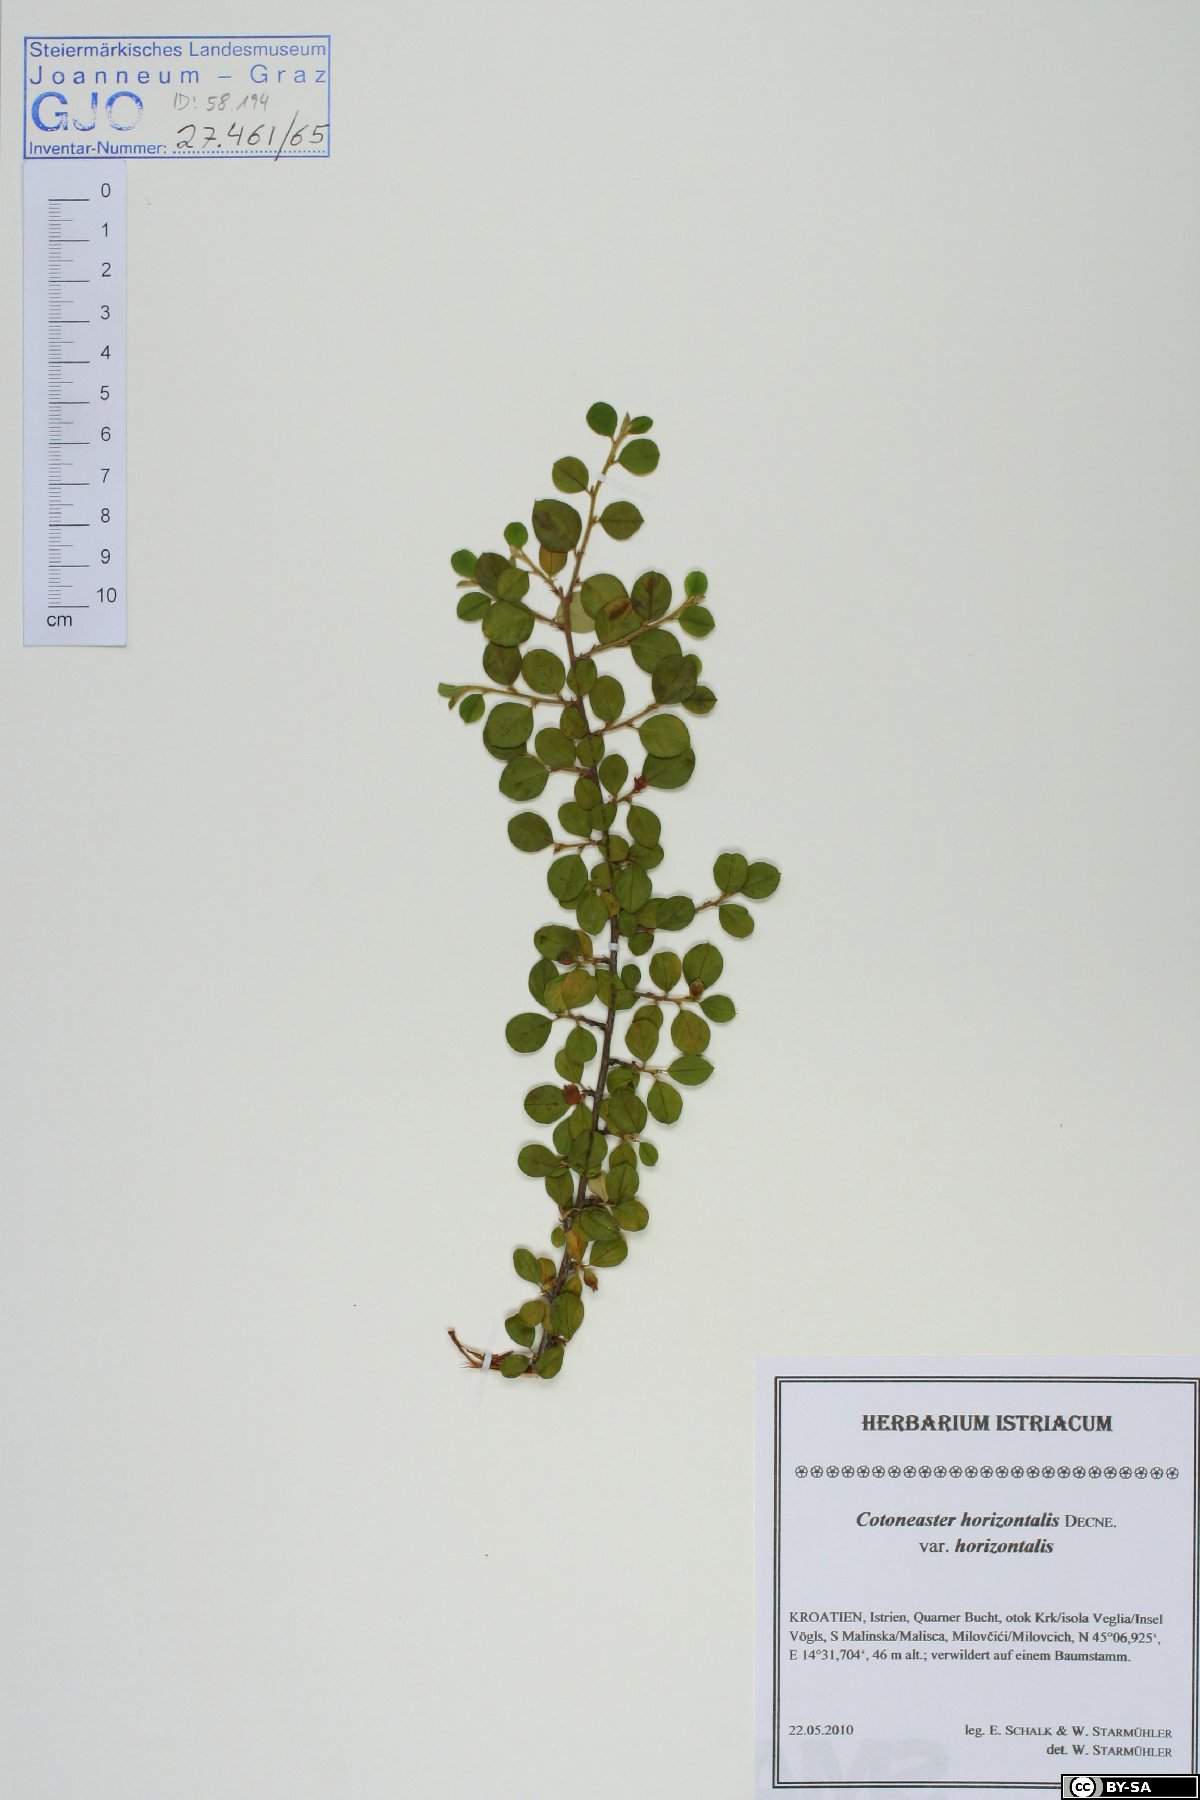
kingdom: Plantae
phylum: Tracheophyta
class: Magnoliopsida
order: Rosales
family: Rosaceae
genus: Cotoneaster
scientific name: Cotoneaster horizontalis
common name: Wall cotoneaster
